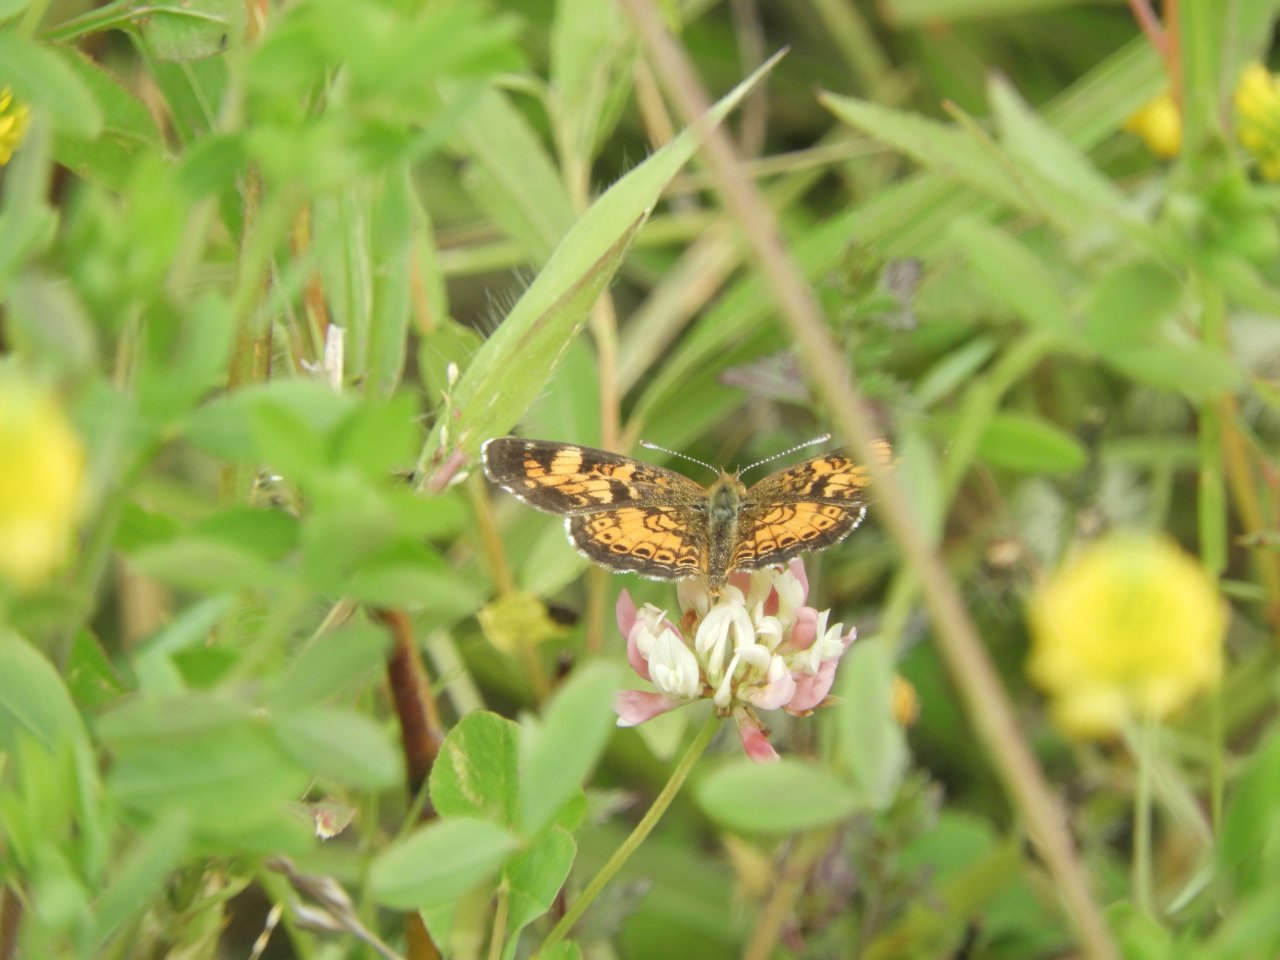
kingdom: Animalia
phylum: Arthropoda
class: Insecta
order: Lepidoptera
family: Nymphalidae
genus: Phyciodes
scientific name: Phyciodes tharos
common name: Northern Crescent
